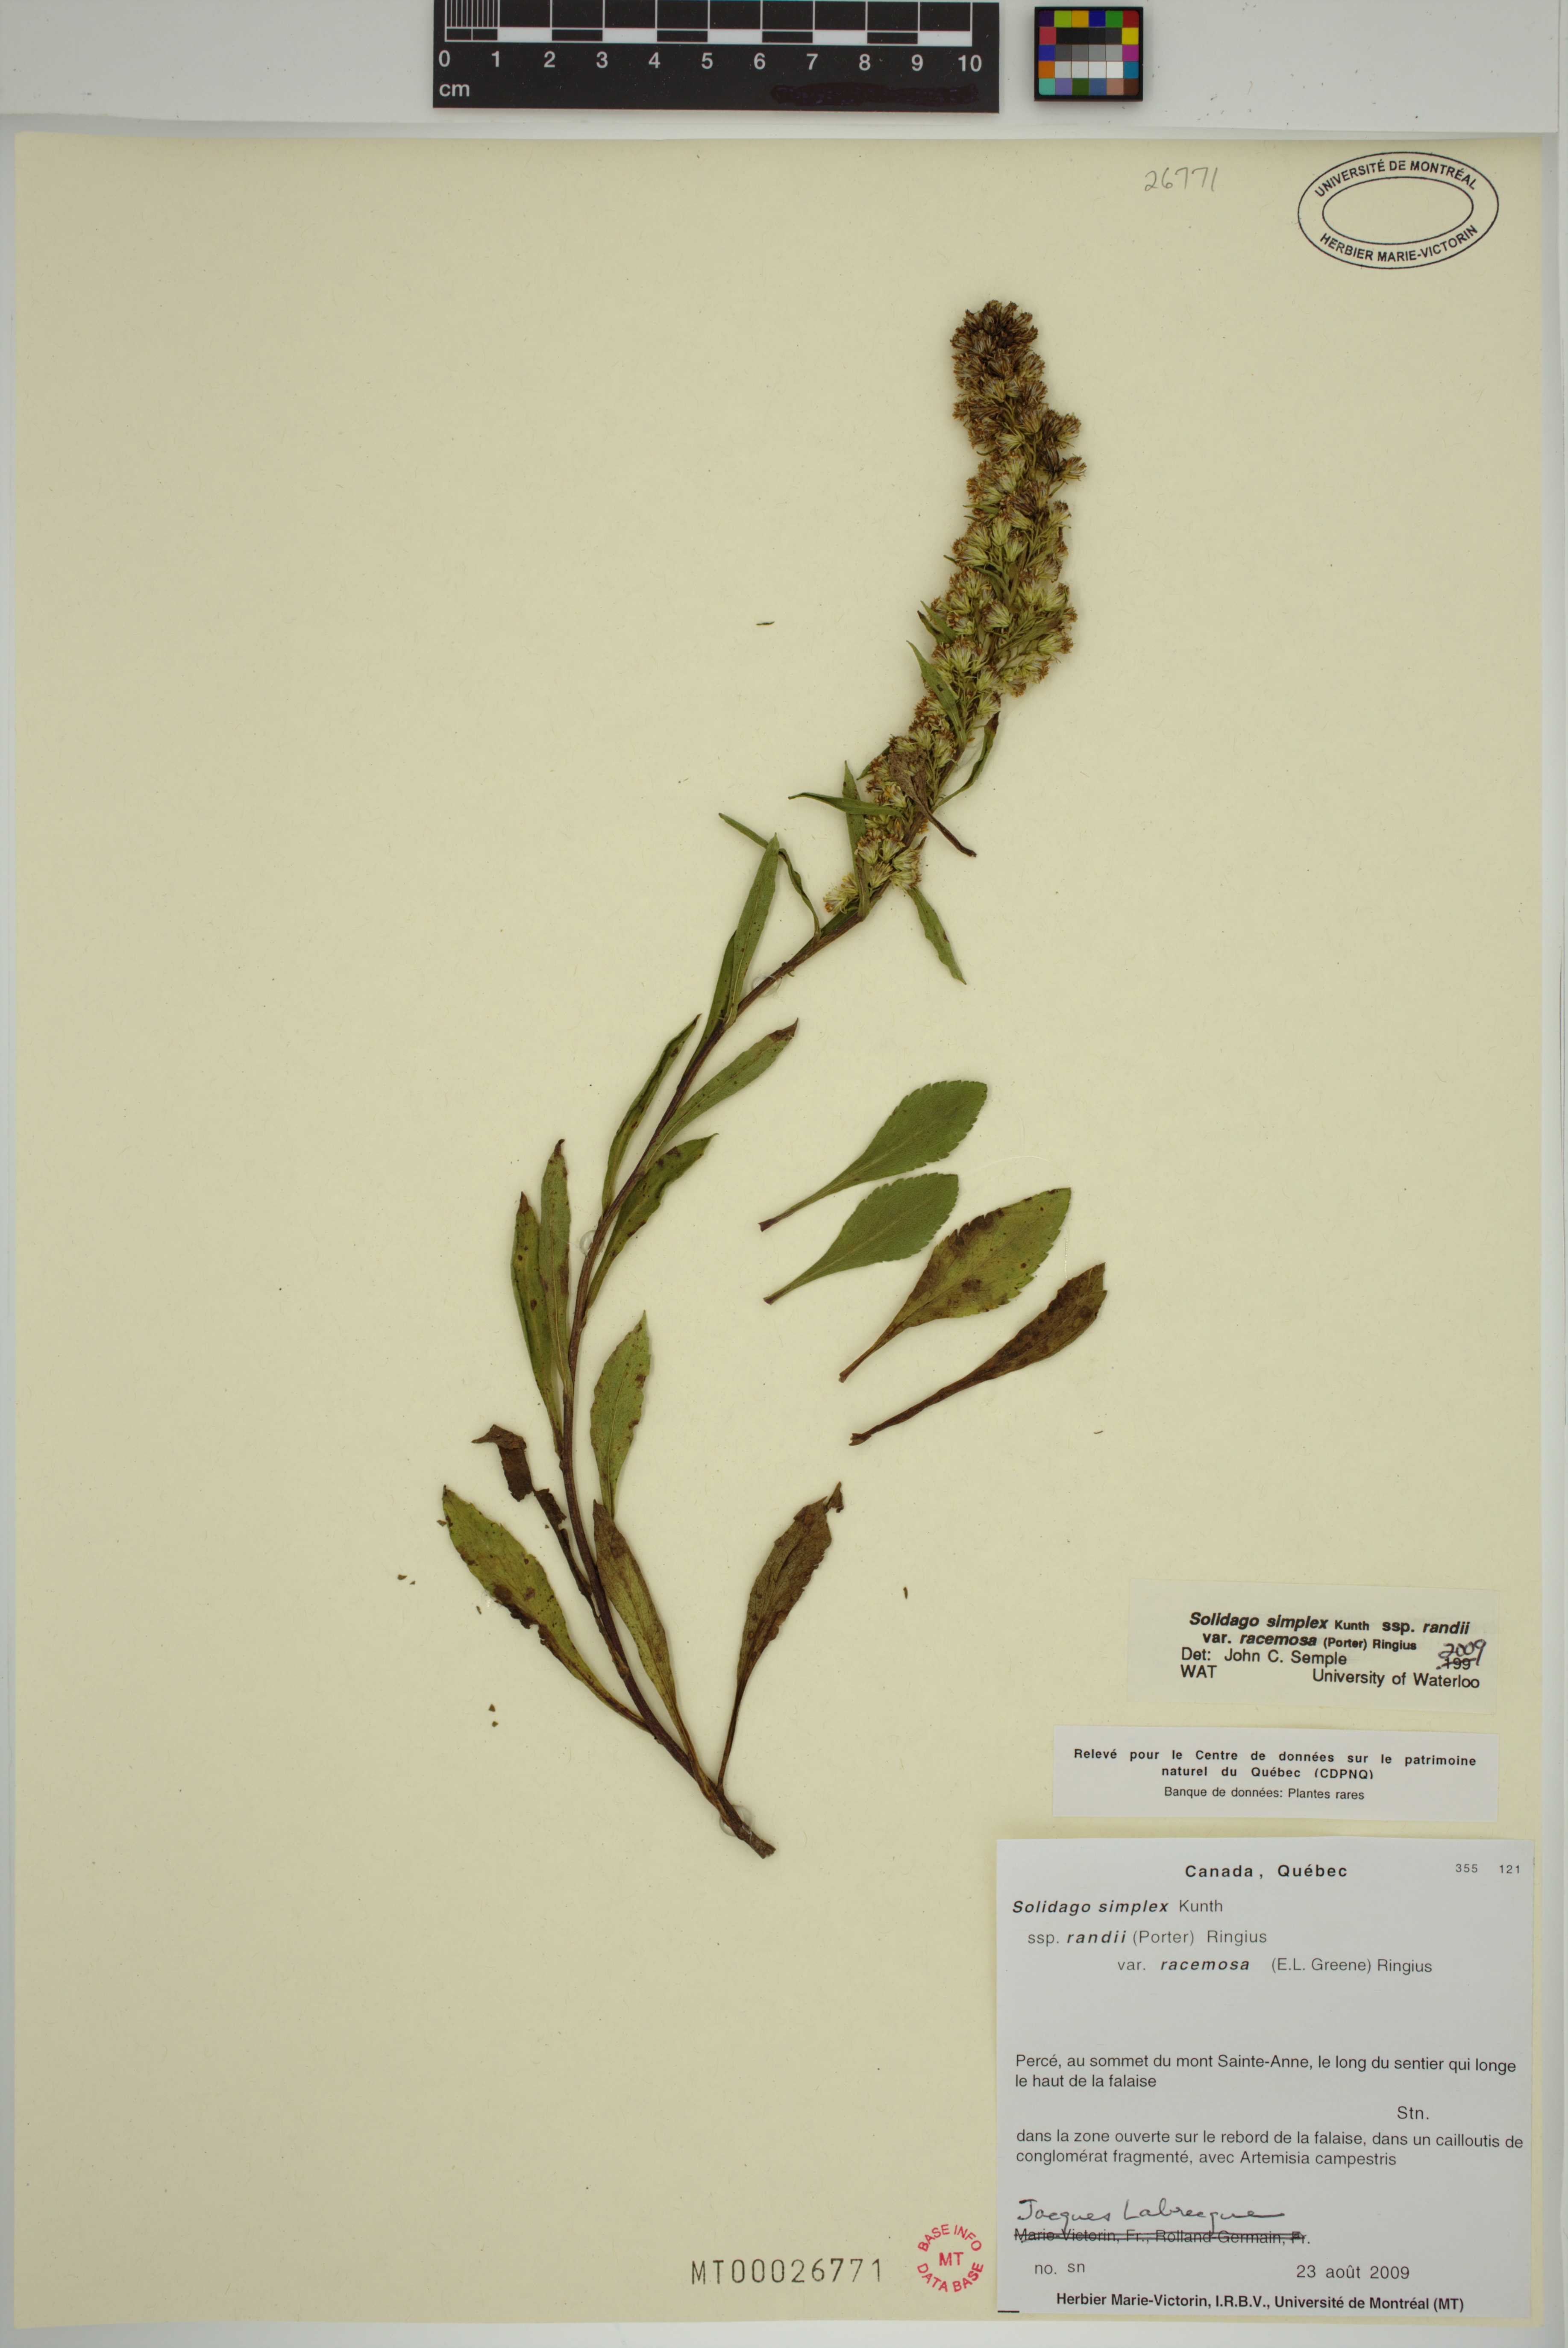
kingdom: Plantae
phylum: Tracheophyta
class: Magnoliopsida
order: Asterales
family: Asteraceae
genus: Solidago
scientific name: Solidago racemosa
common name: Lake ontario goldenrod
